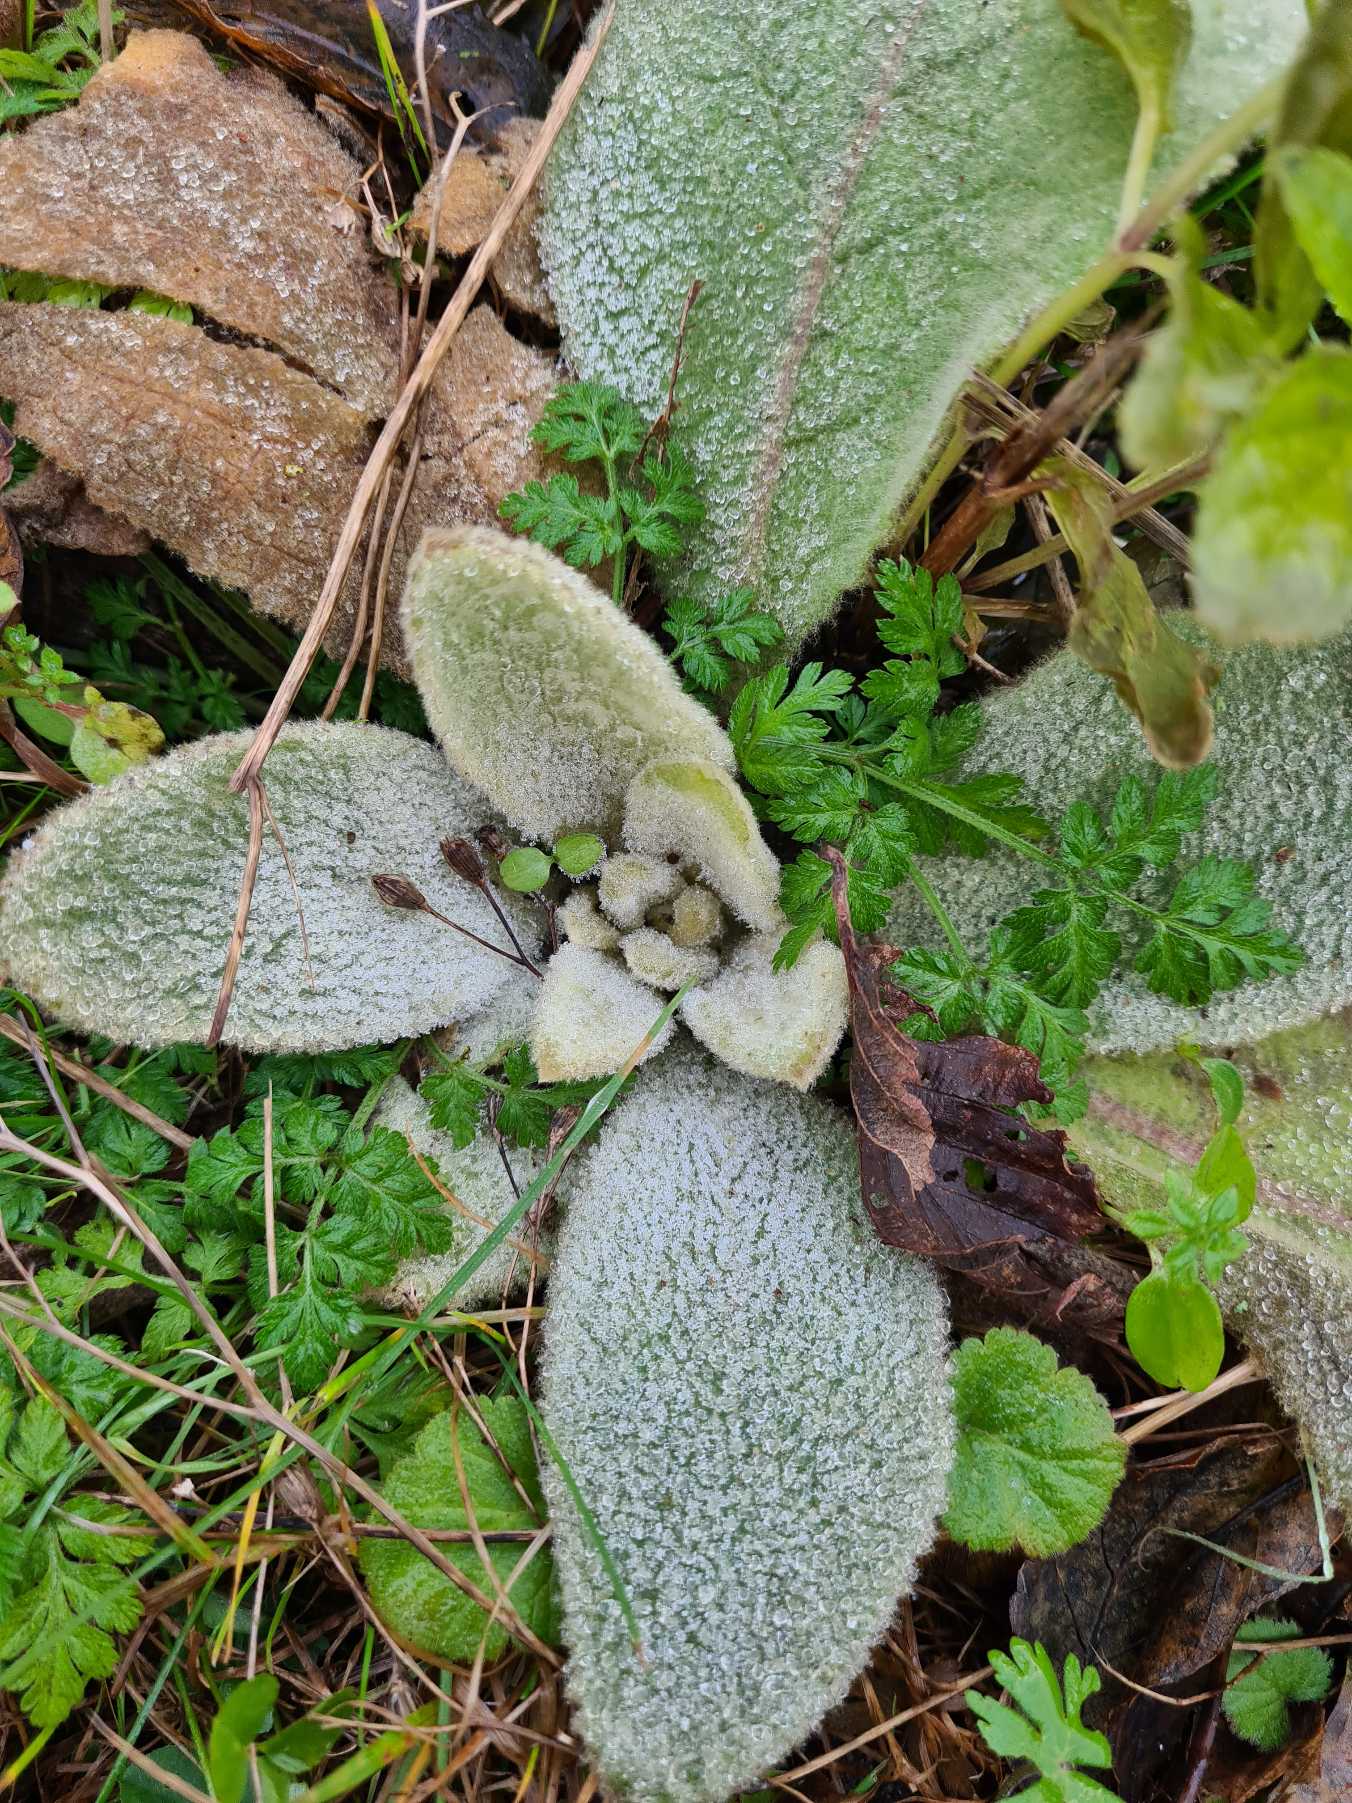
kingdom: Plantae
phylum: Tracheophyta
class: Magnoliopsida
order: Lamiales
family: Scrophulariaceae
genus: Verbascum
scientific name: Verbascum
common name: Kongelysslægten
